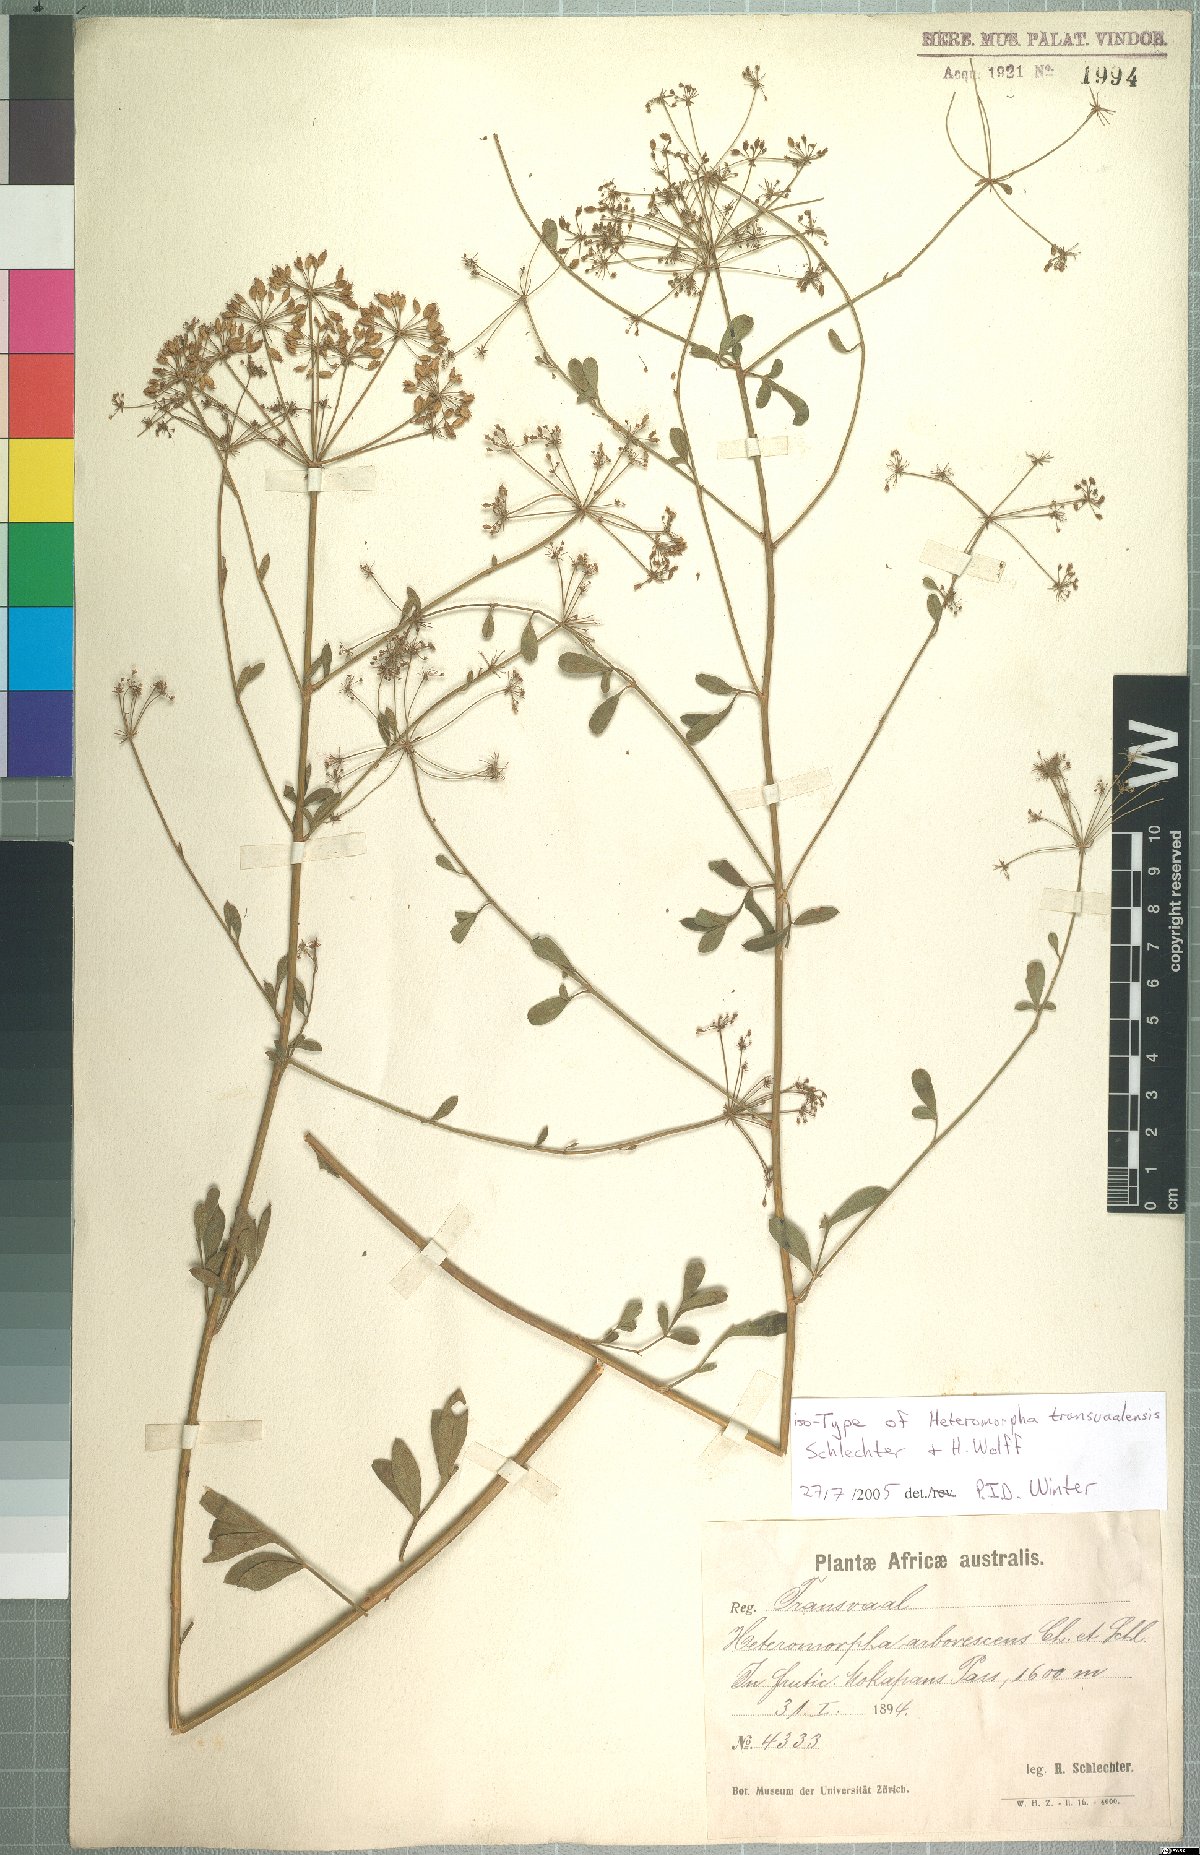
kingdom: Plantae
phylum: Tracheophyta
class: Magnoliopsida
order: Apiales
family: Apiaceae
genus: Heteromorpha
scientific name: Heteromorpha stenophylla
